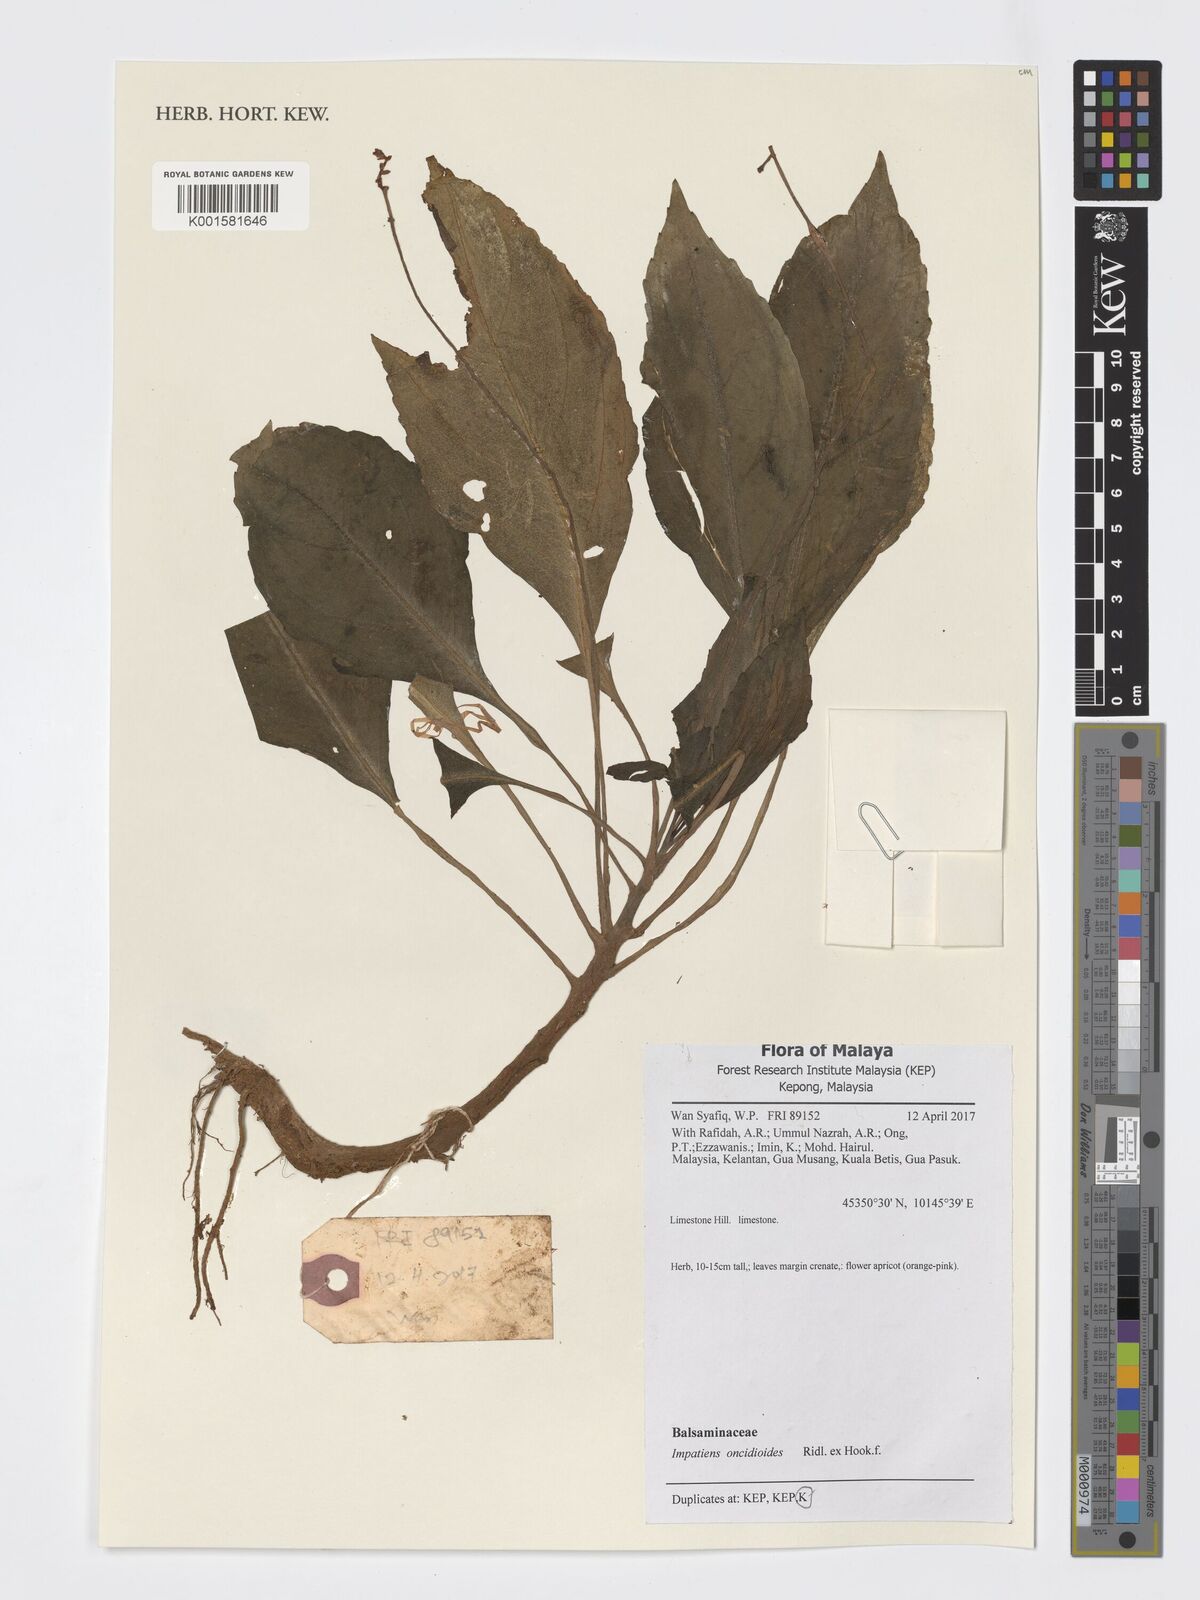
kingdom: Plantae
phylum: Tracheophyta
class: Magnoliopsida
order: Ericales
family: Balsaminaceae
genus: Impatiens
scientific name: Impatiens oncidioides
